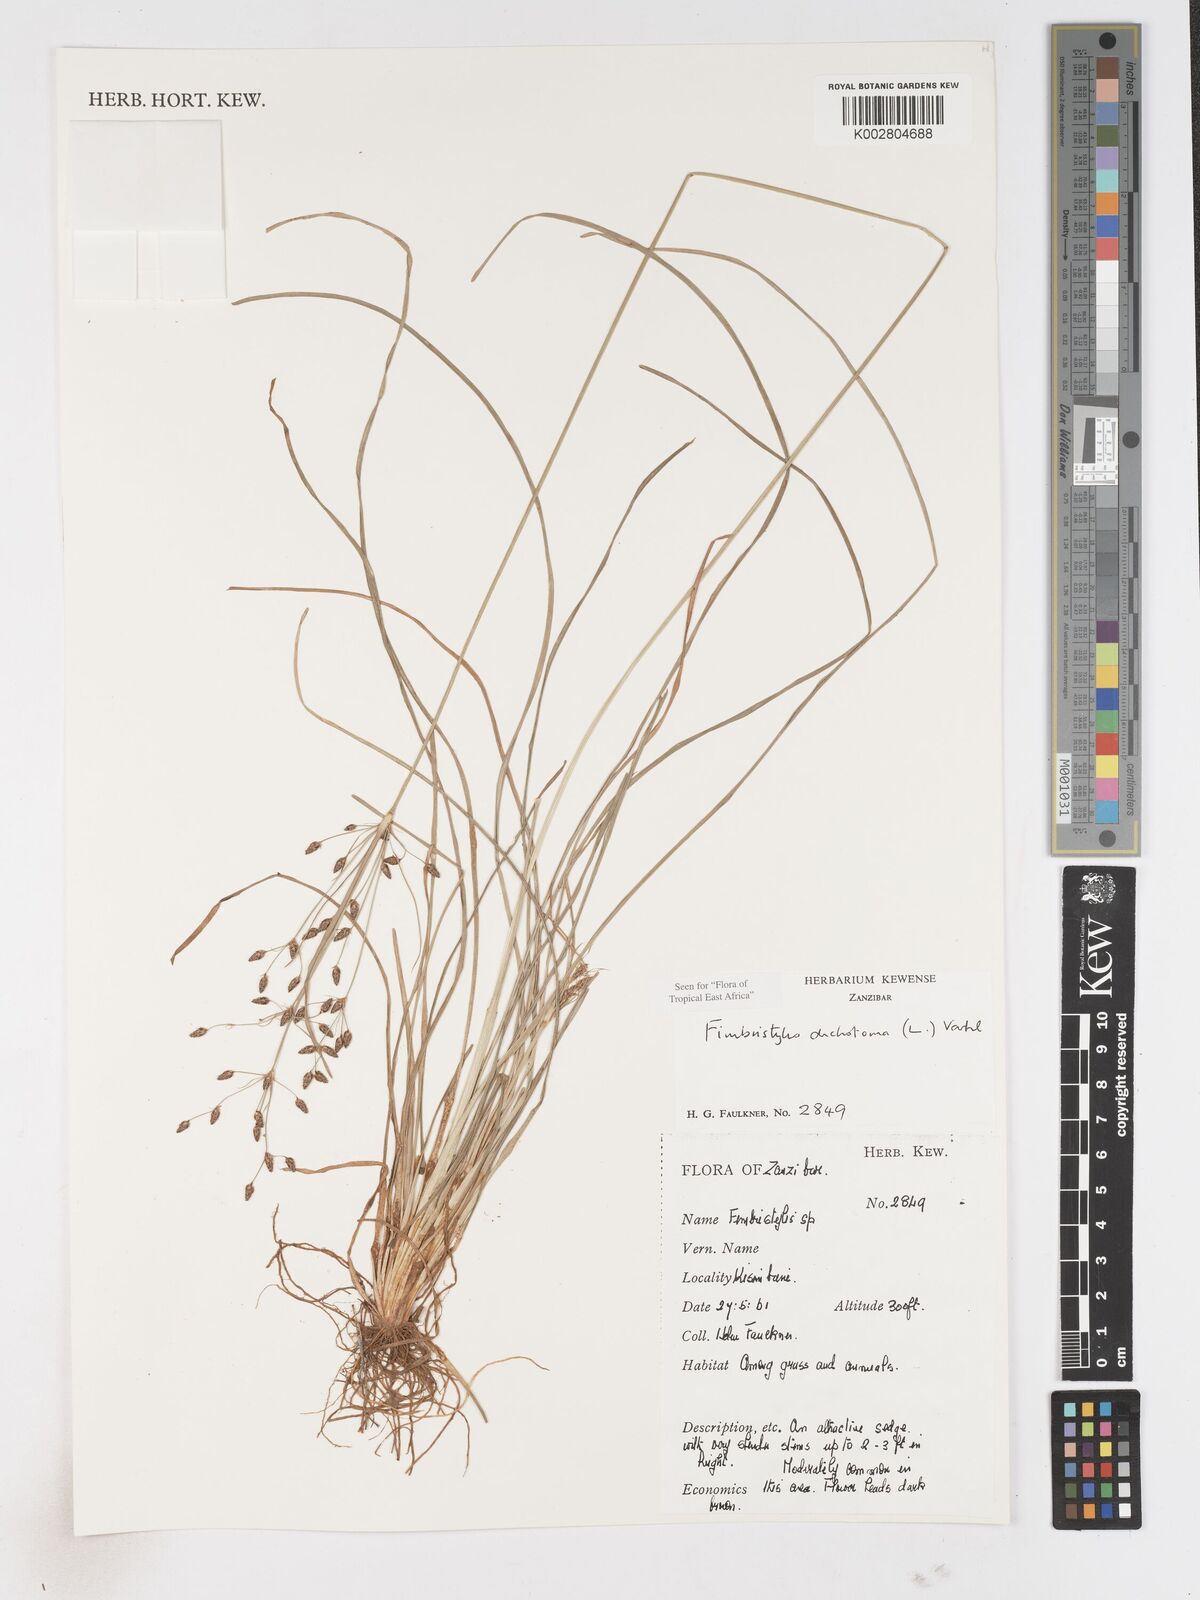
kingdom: Plantae
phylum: Tracheophyta
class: Liliopsida
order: Poales
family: Cyperaceae
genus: Fimbristylis
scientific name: Fimbristylis dichotoma
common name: Forked fimbry
